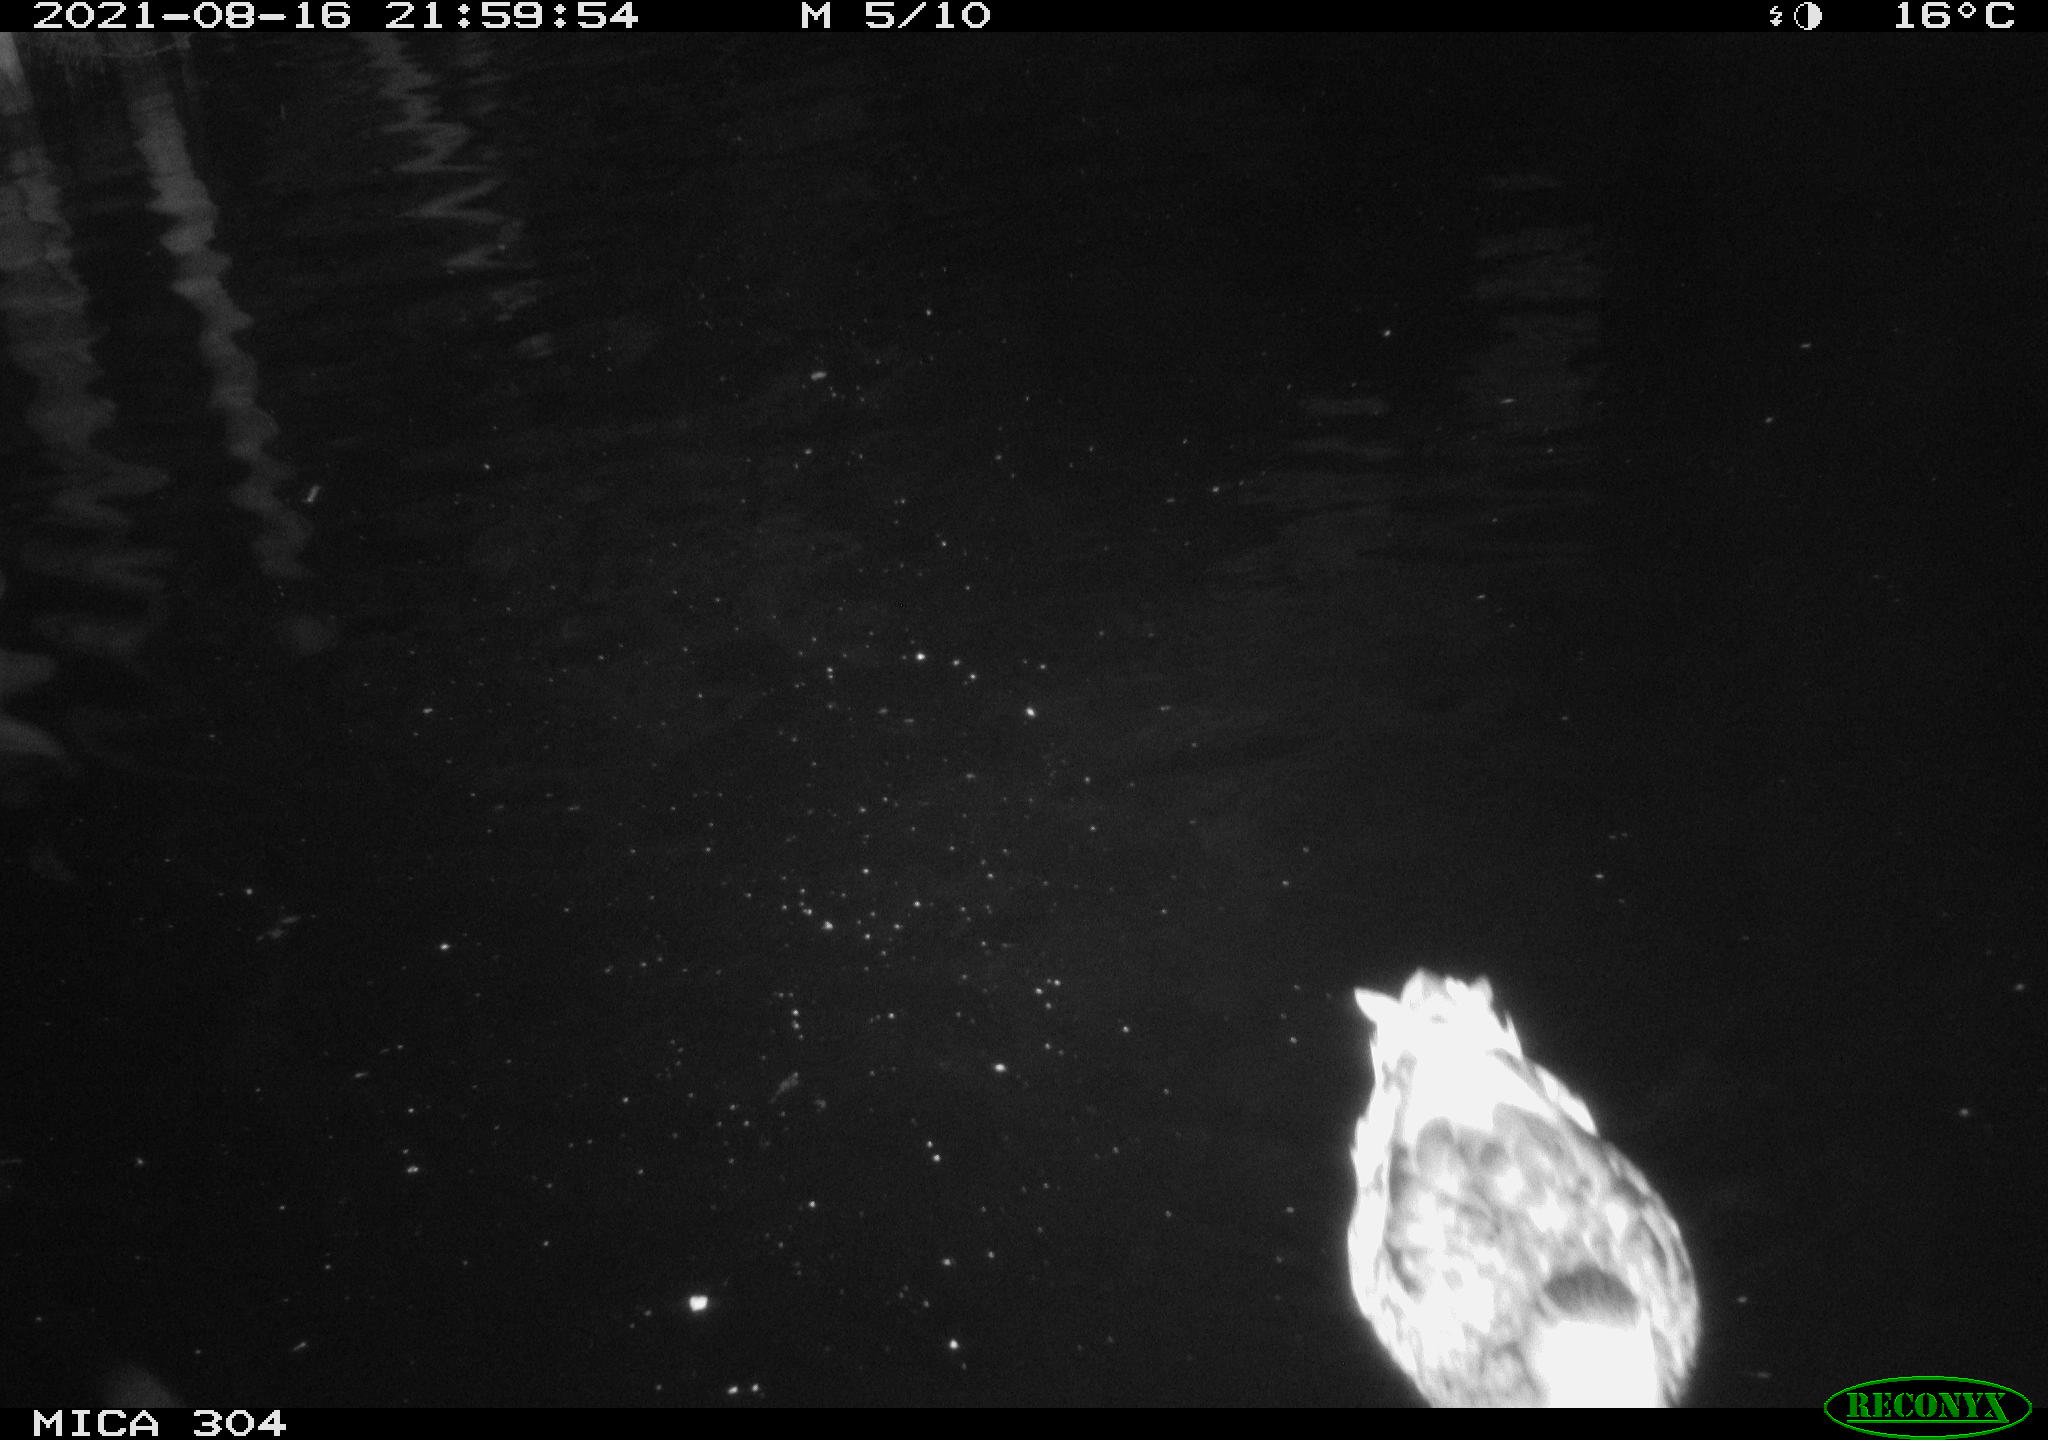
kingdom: Animalia
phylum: Chordata
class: Aves
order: Anseriformes
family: Anatidae
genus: Anas
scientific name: Anas platyrhynchos
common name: Mallard
